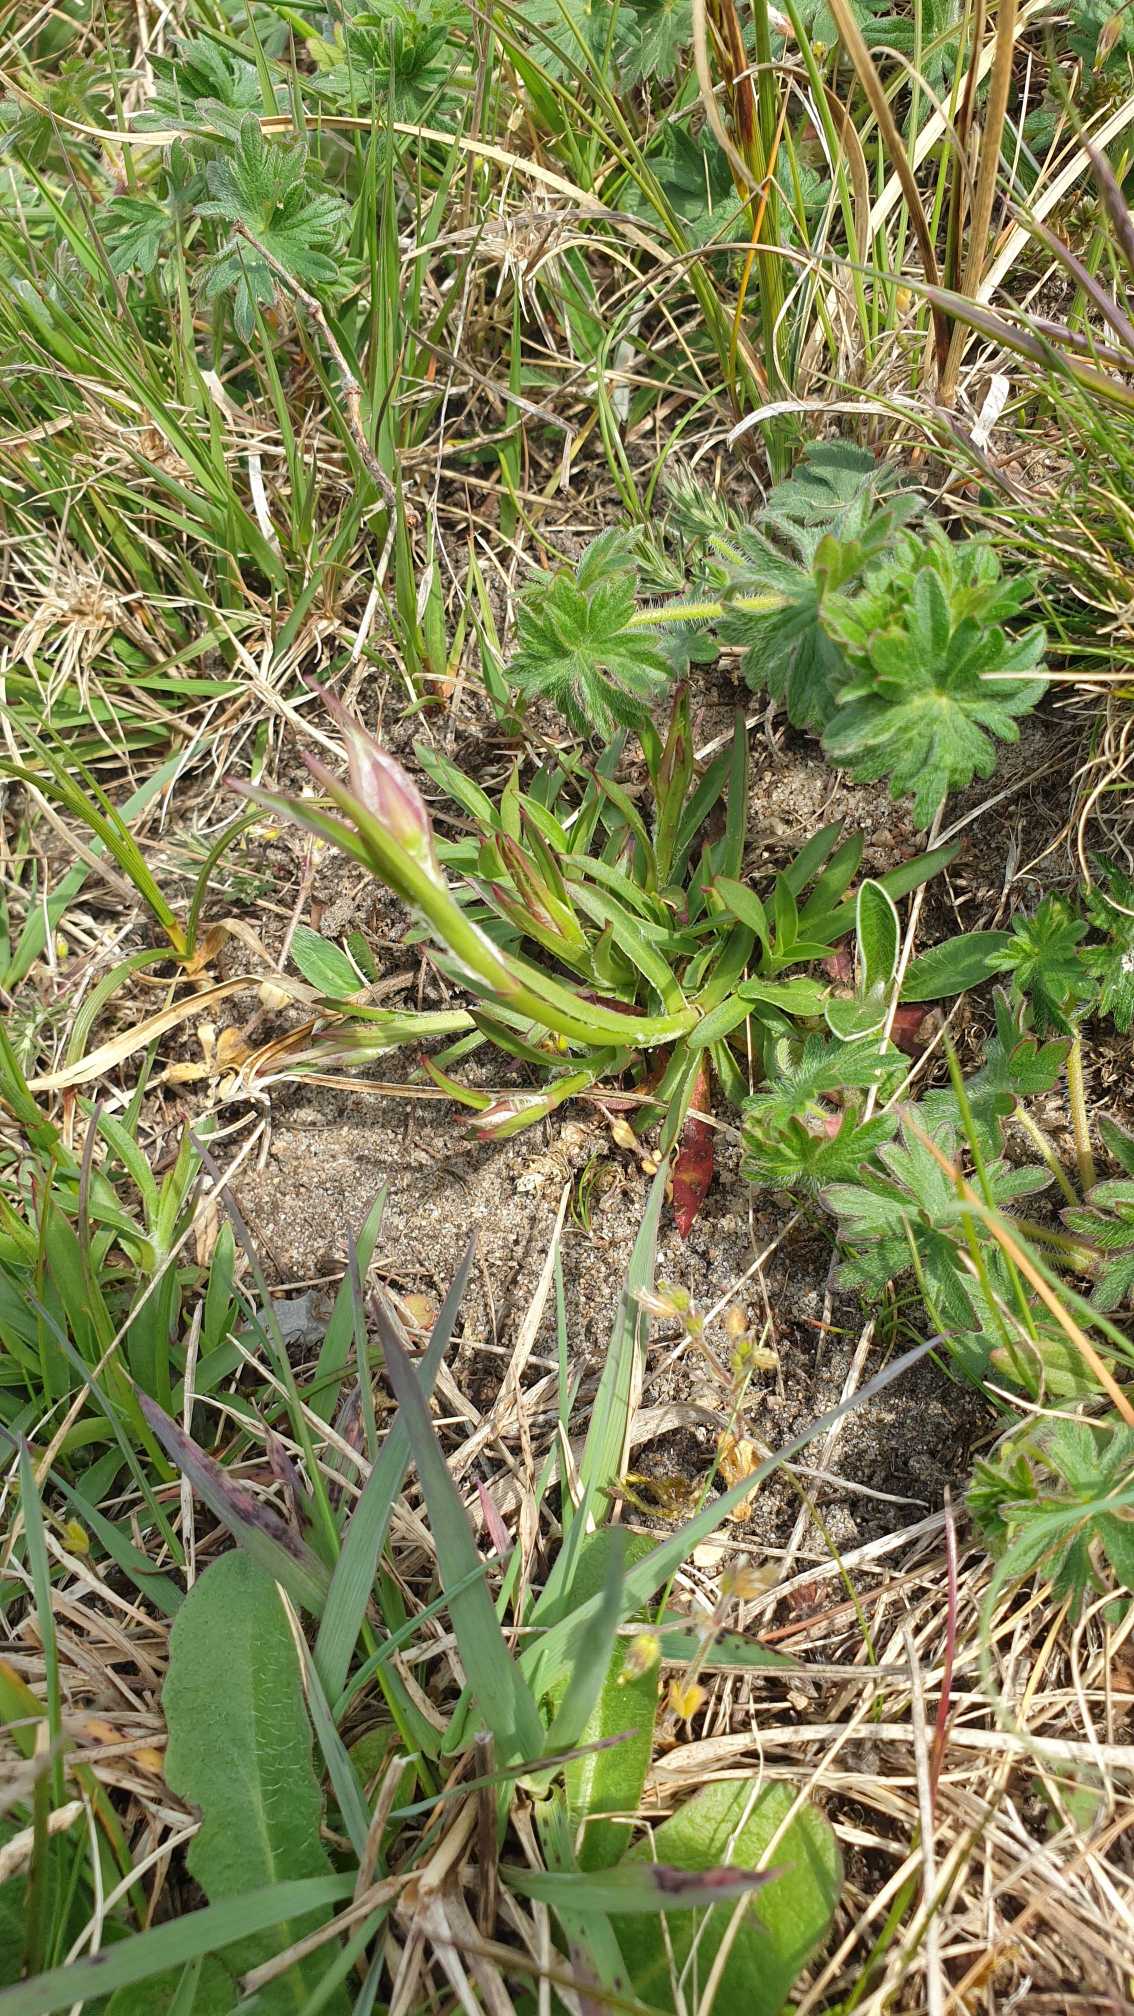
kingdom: Plantae
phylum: Tracheophyta
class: Magnoliopsida
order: Caryophyllales
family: Caryophyllaceae
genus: Viscaria
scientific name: Viscaria vulgaris
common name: Tjærenellike
